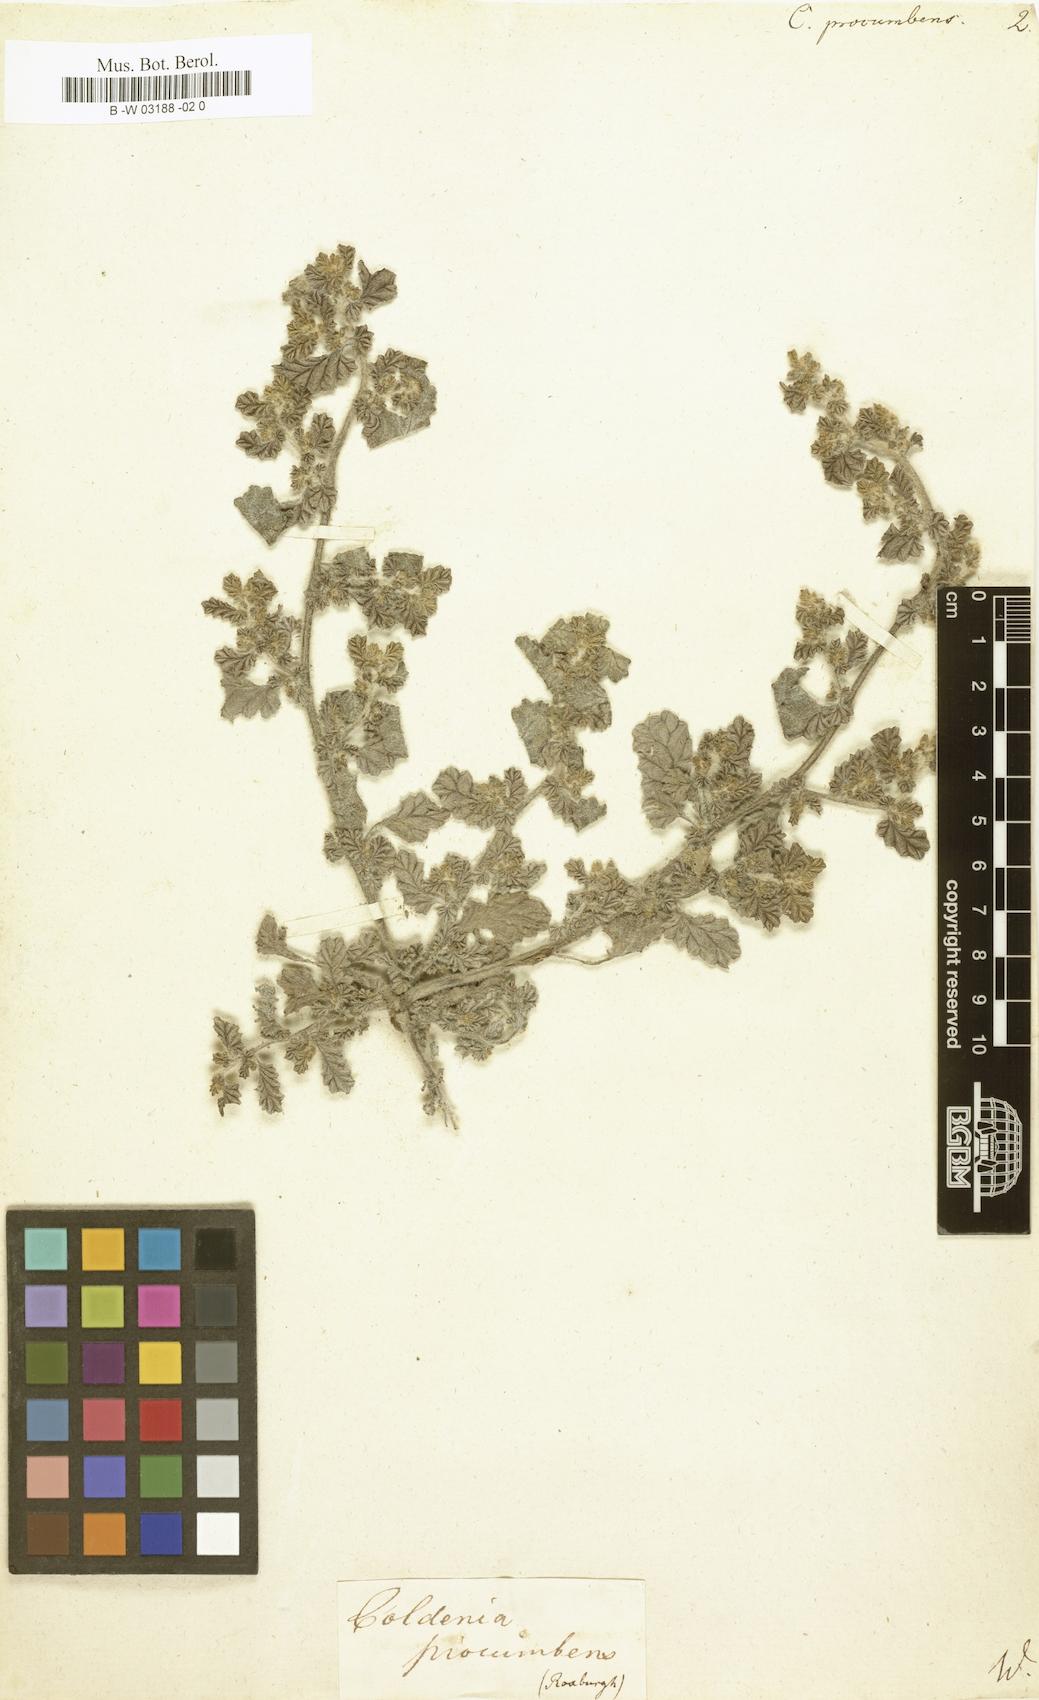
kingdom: Plantae
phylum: Tracheophyta
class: Magnoliopsida
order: Boraginales
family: Coldeniaceae
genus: Coldenia
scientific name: Coldenia procumbens
